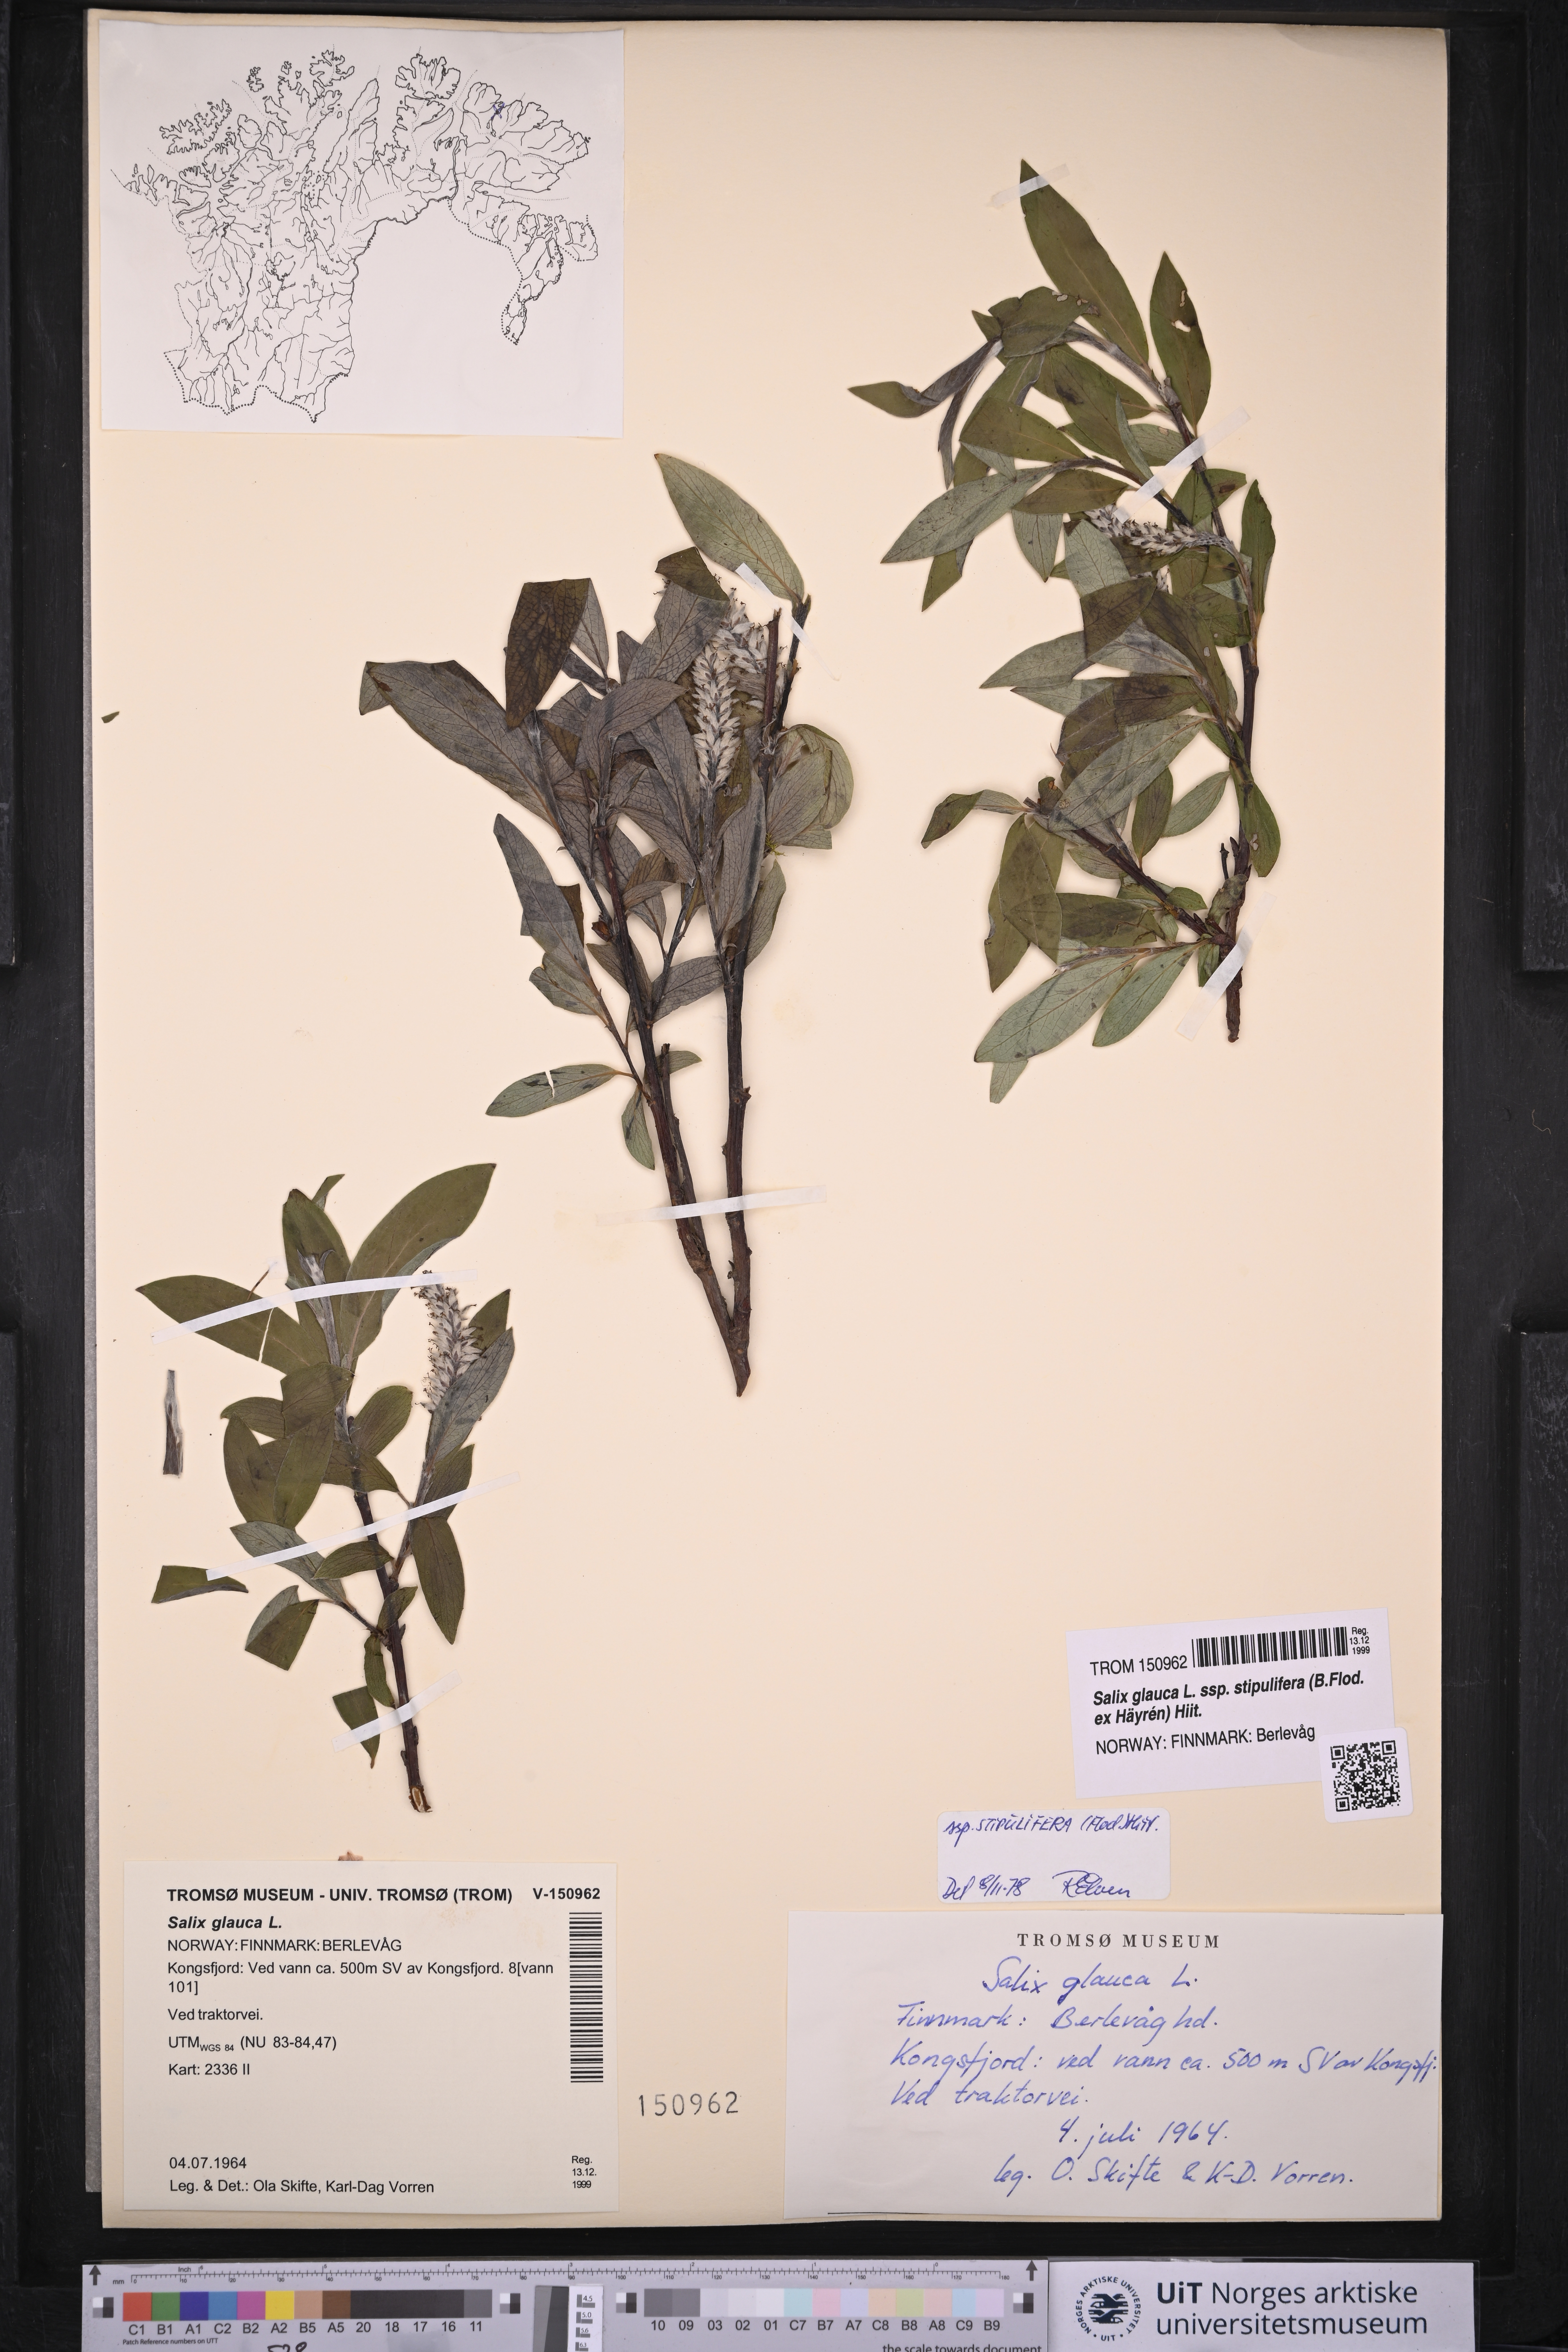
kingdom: Plantae
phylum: Tracheophyta
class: Magnoliopsida
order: Malpighiales
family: Salicaceae
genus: Salix
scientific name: Salix glauca
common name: Glaucous willow
